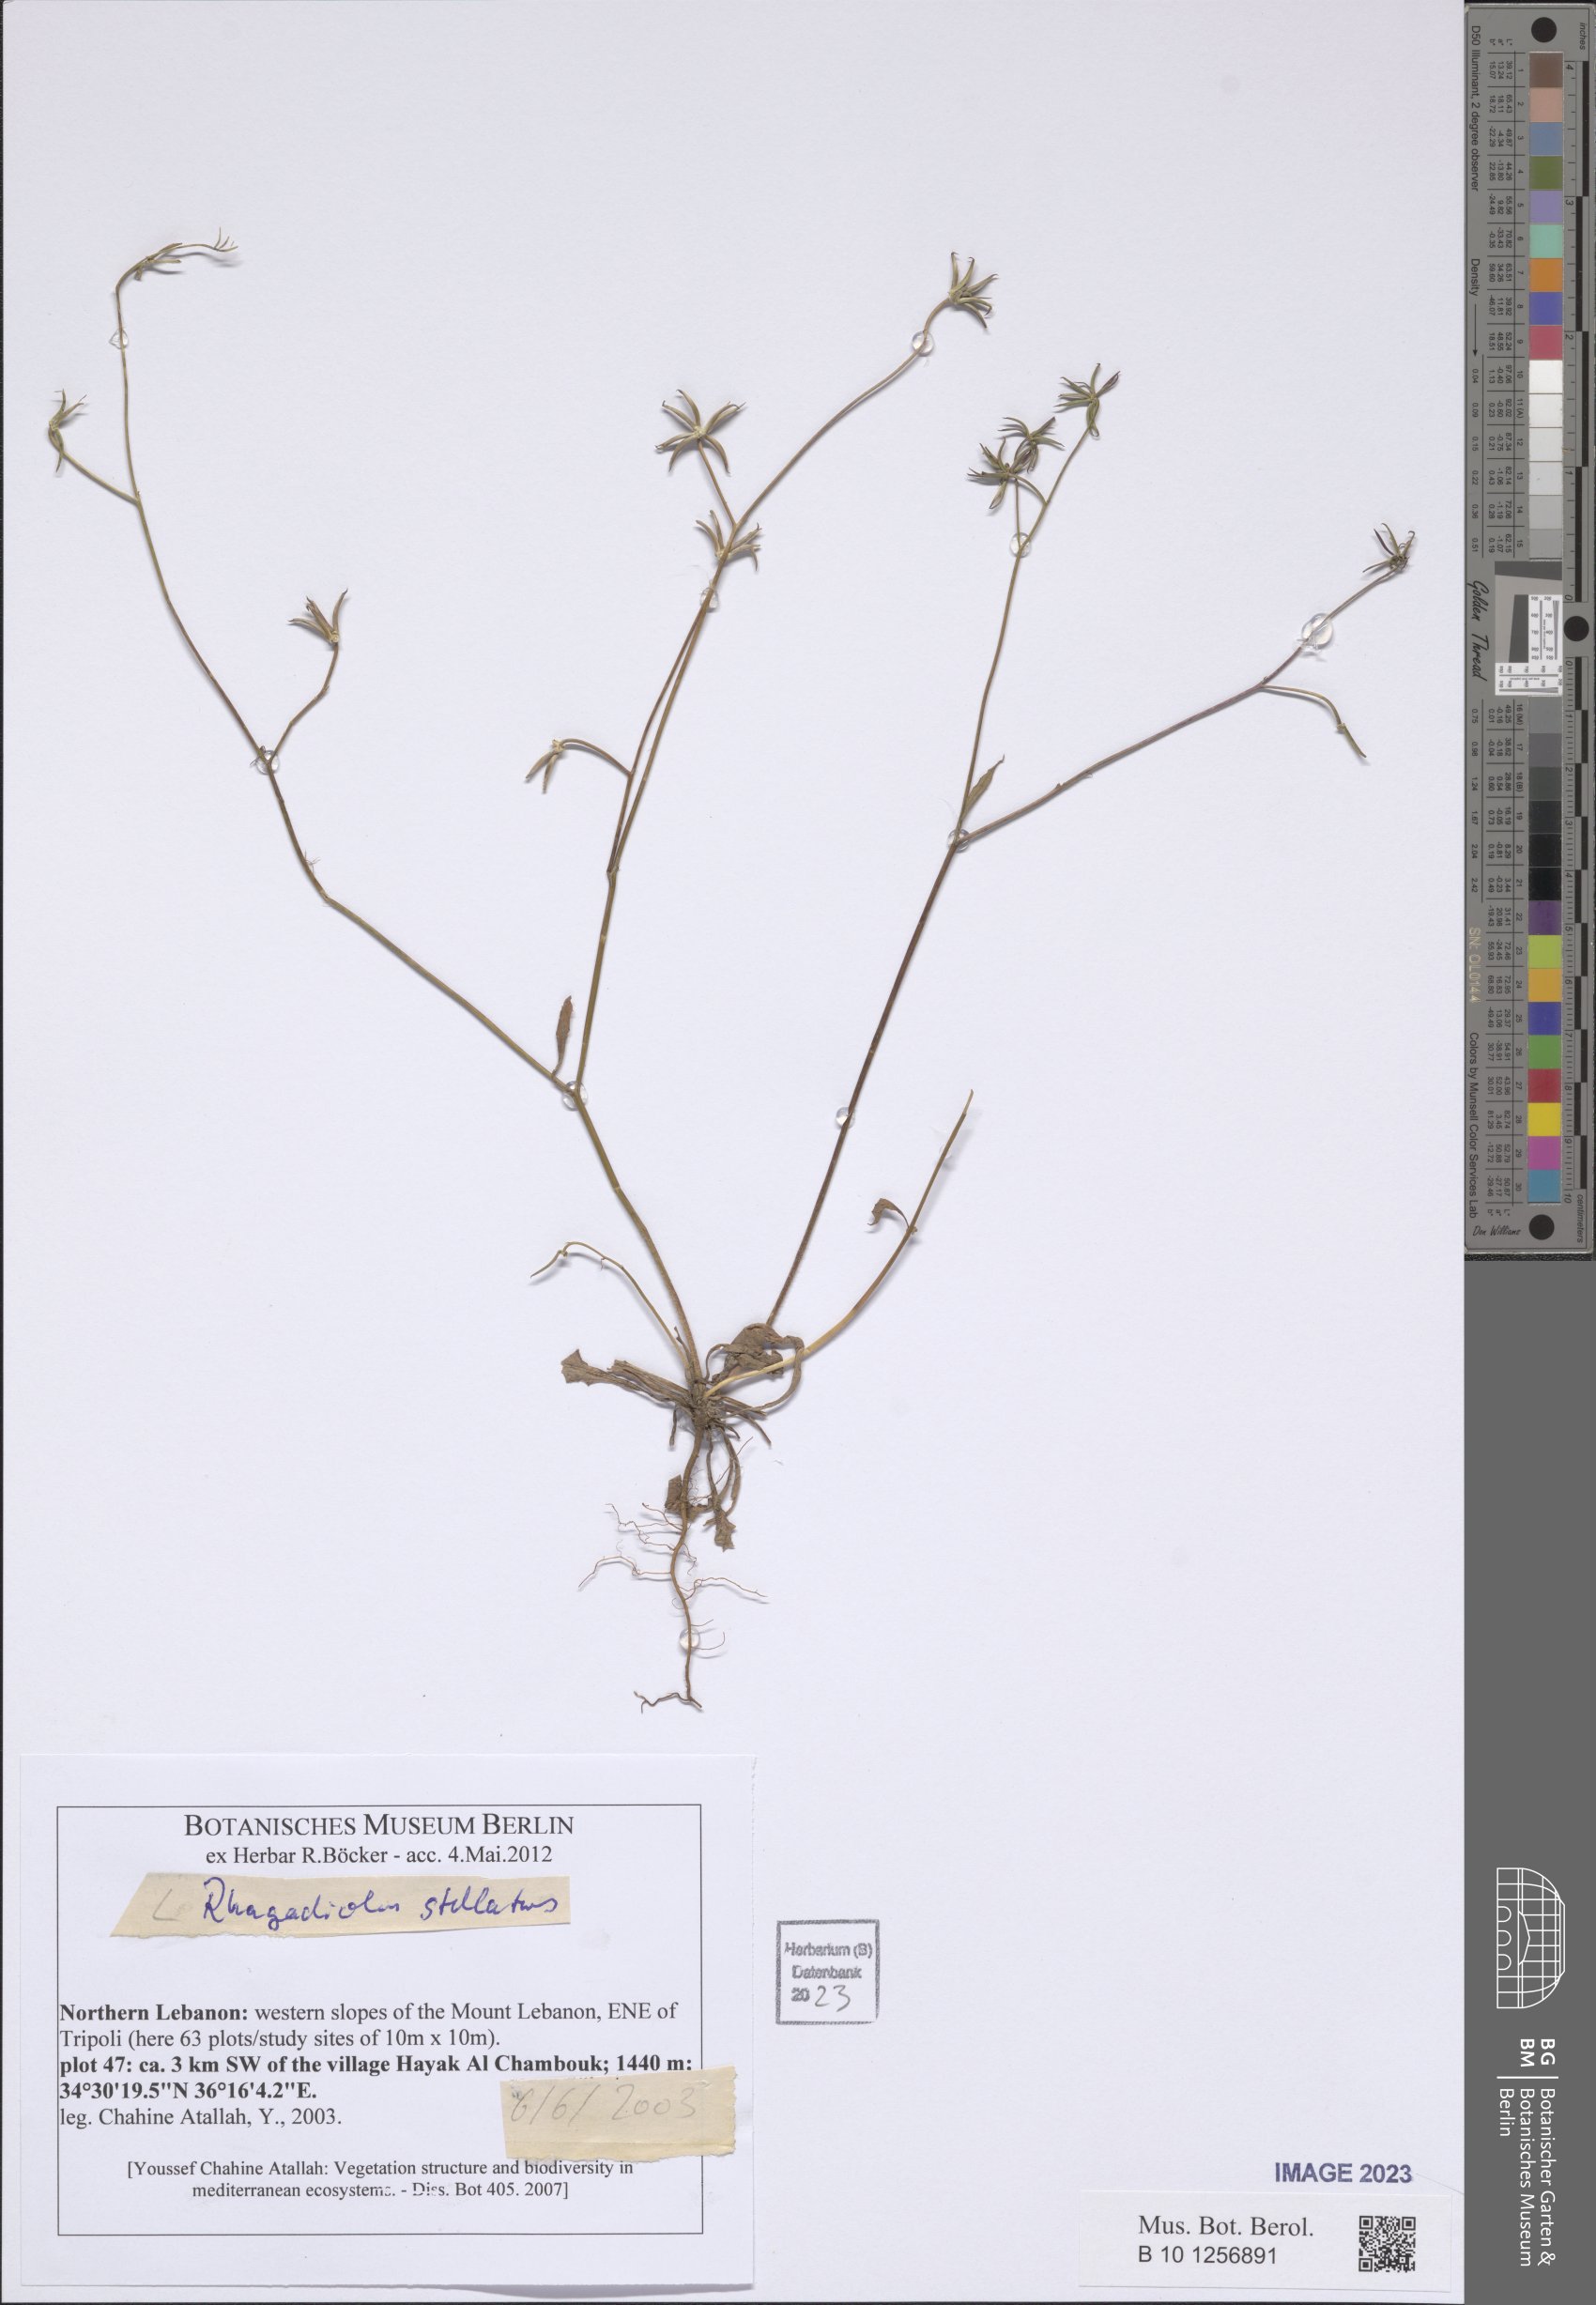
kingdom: Plantae
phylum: Tracheophyta
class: Magnoliopsida
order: Asterales
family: Asteraceae
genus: Rhagadiolus
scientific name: Rhagadiolus stellatus
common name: Star hawkbit
